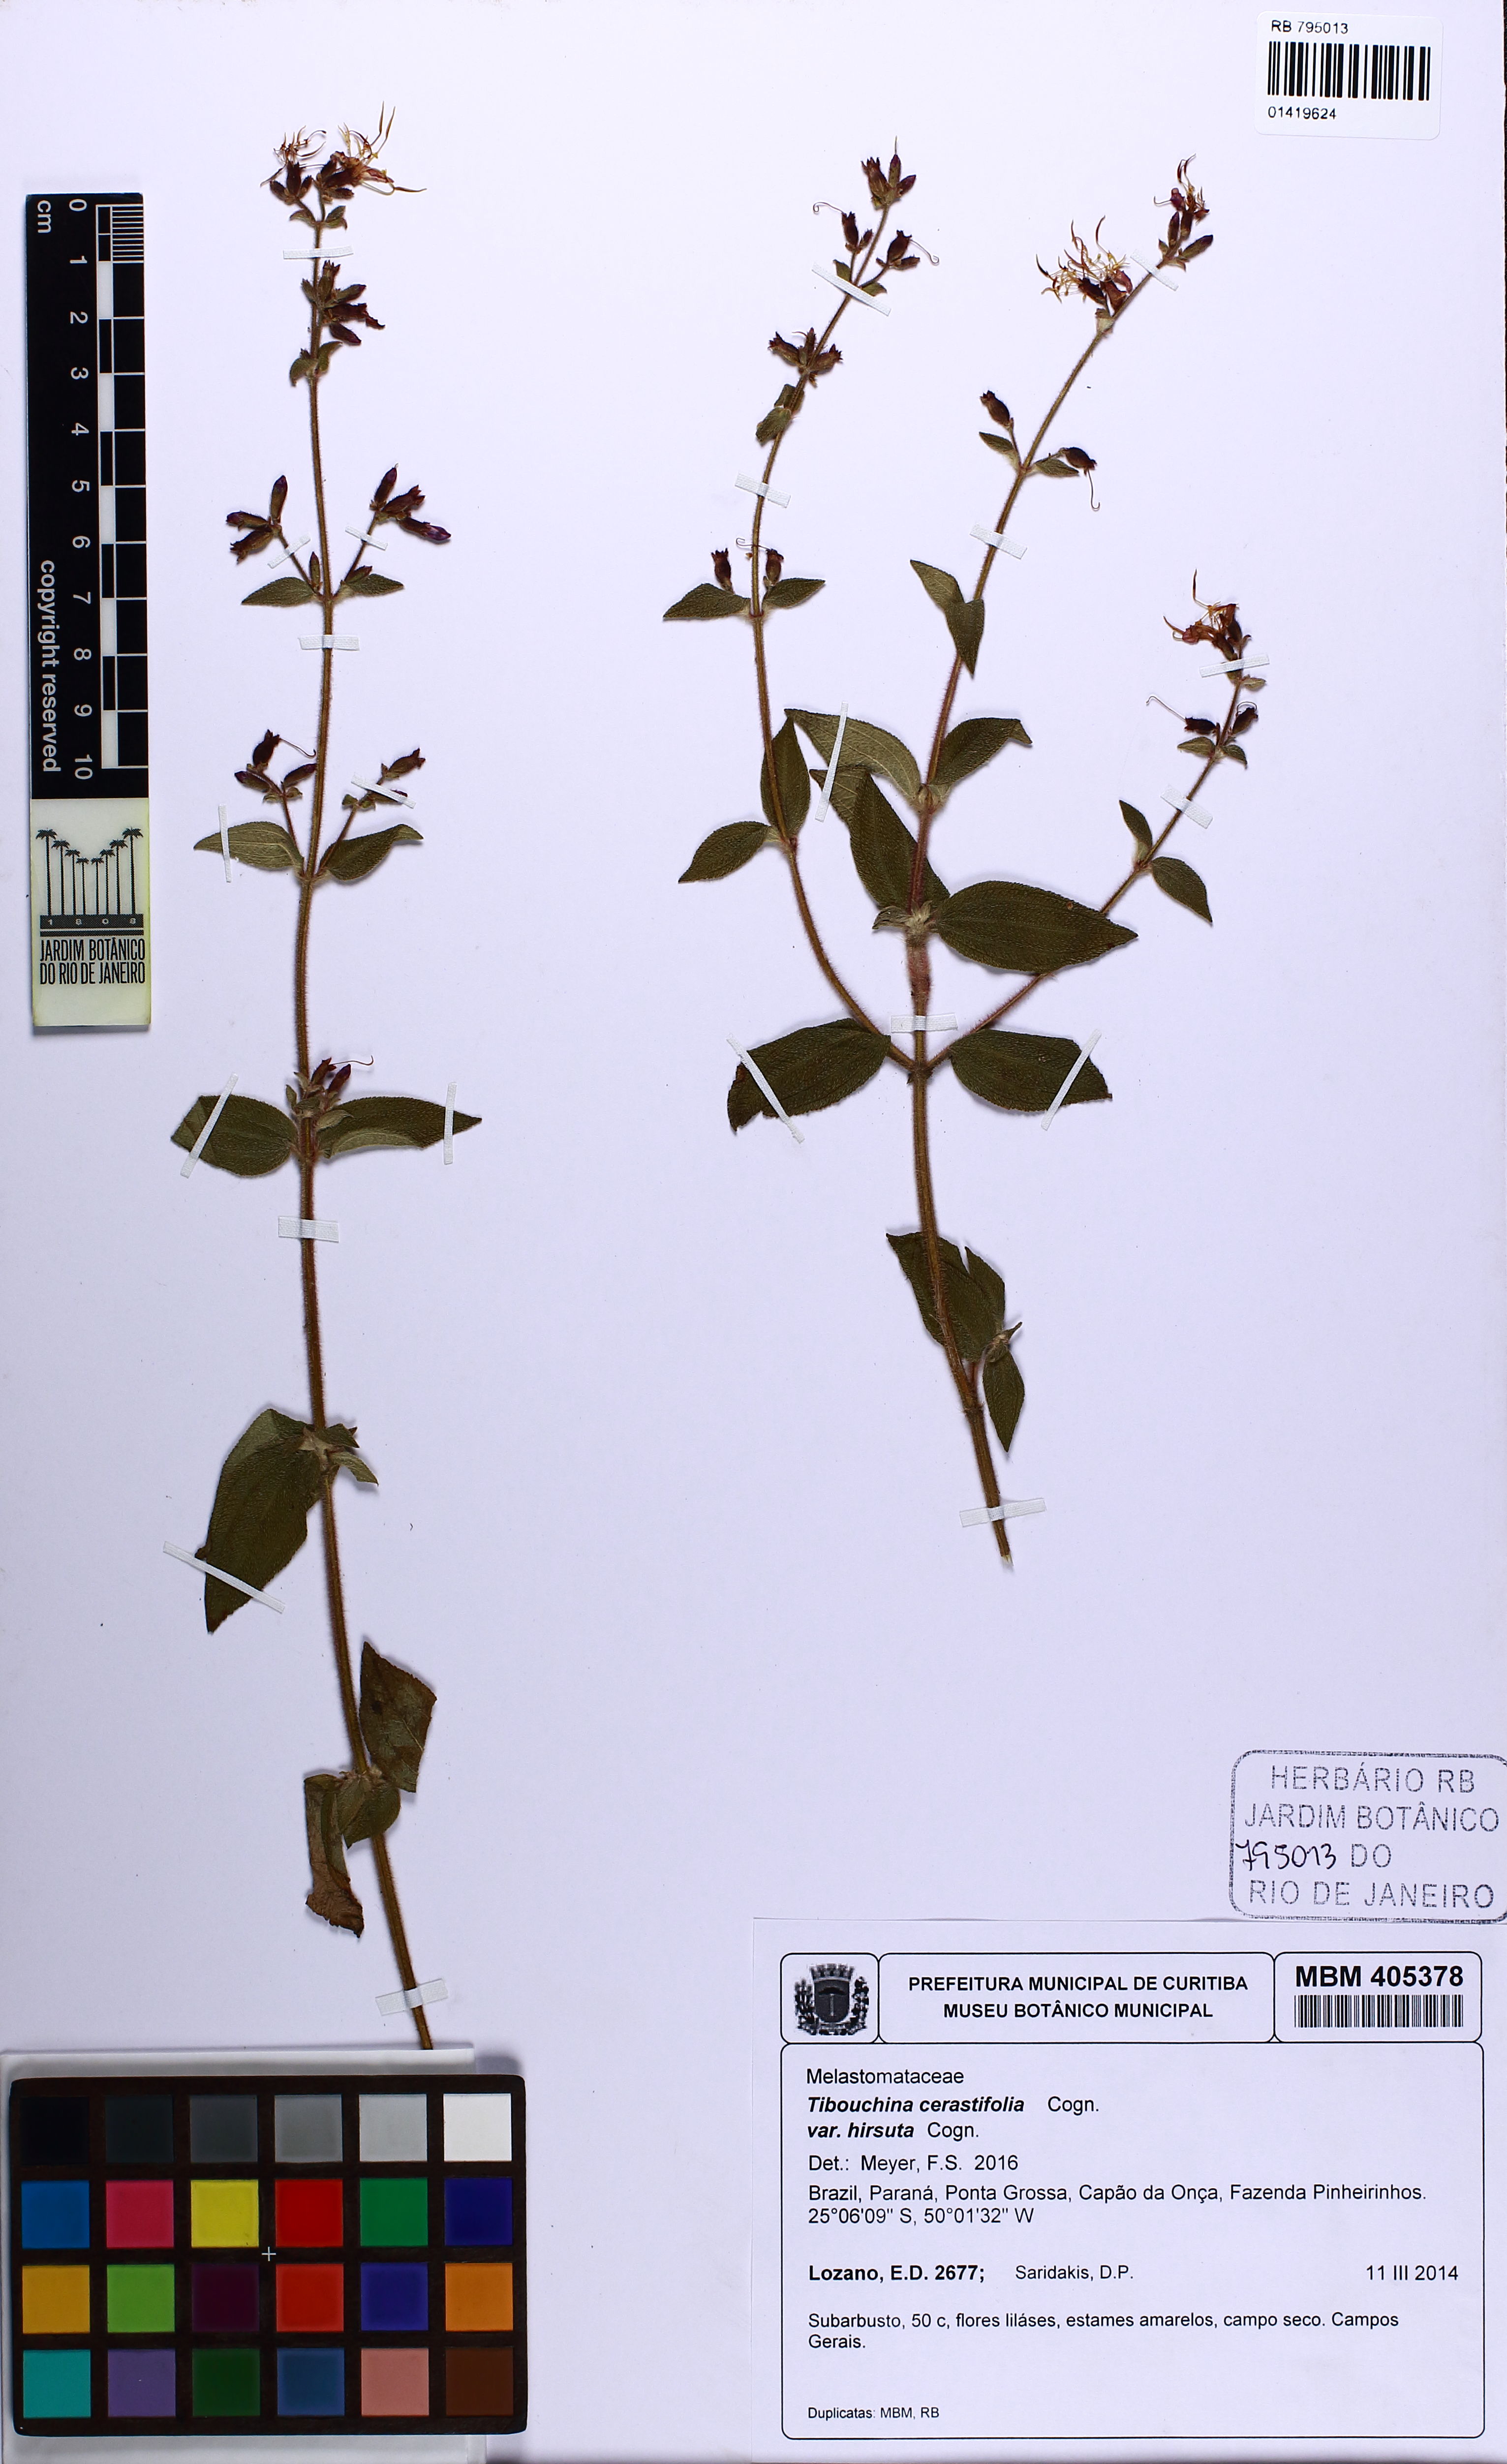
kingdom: Plantae
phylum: Tracheophyta
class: Magnoliopsida
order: Myrtales
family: Melastomataceae
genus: Chaetogastra
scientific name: Chaetogastra cerastifolia
